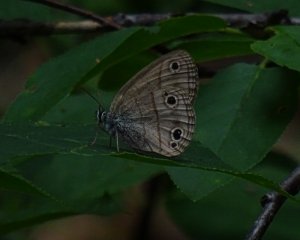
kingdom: Animalia
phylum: Arthropoda
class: Insecta
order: Lepidoptera
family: Nymphalidae
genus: Euptychia
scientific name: Euptychia cymela
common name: Little Wood Satyr
